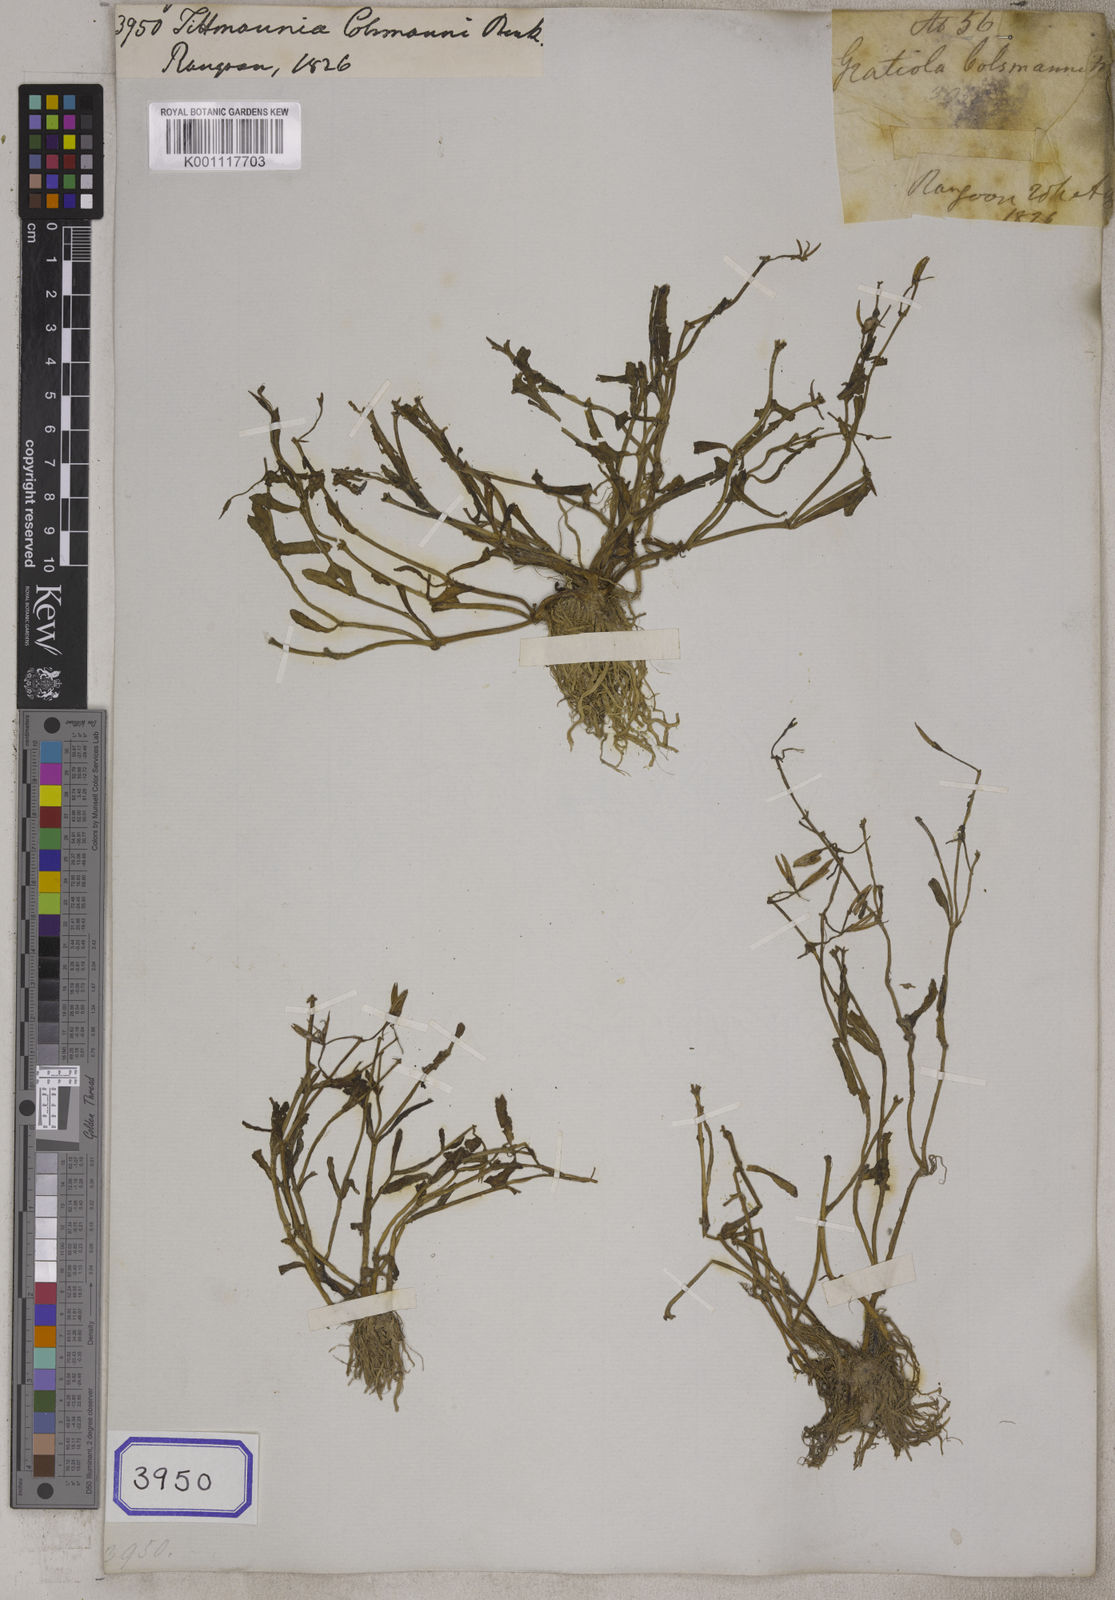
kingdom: Plantae
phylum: Tracheophyta
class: Magnoliopsida
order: Lamiales
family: Linderniaceae
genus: Bonnaya
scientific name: Bonnaya antipoda
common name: Sparrow false pimpernel
